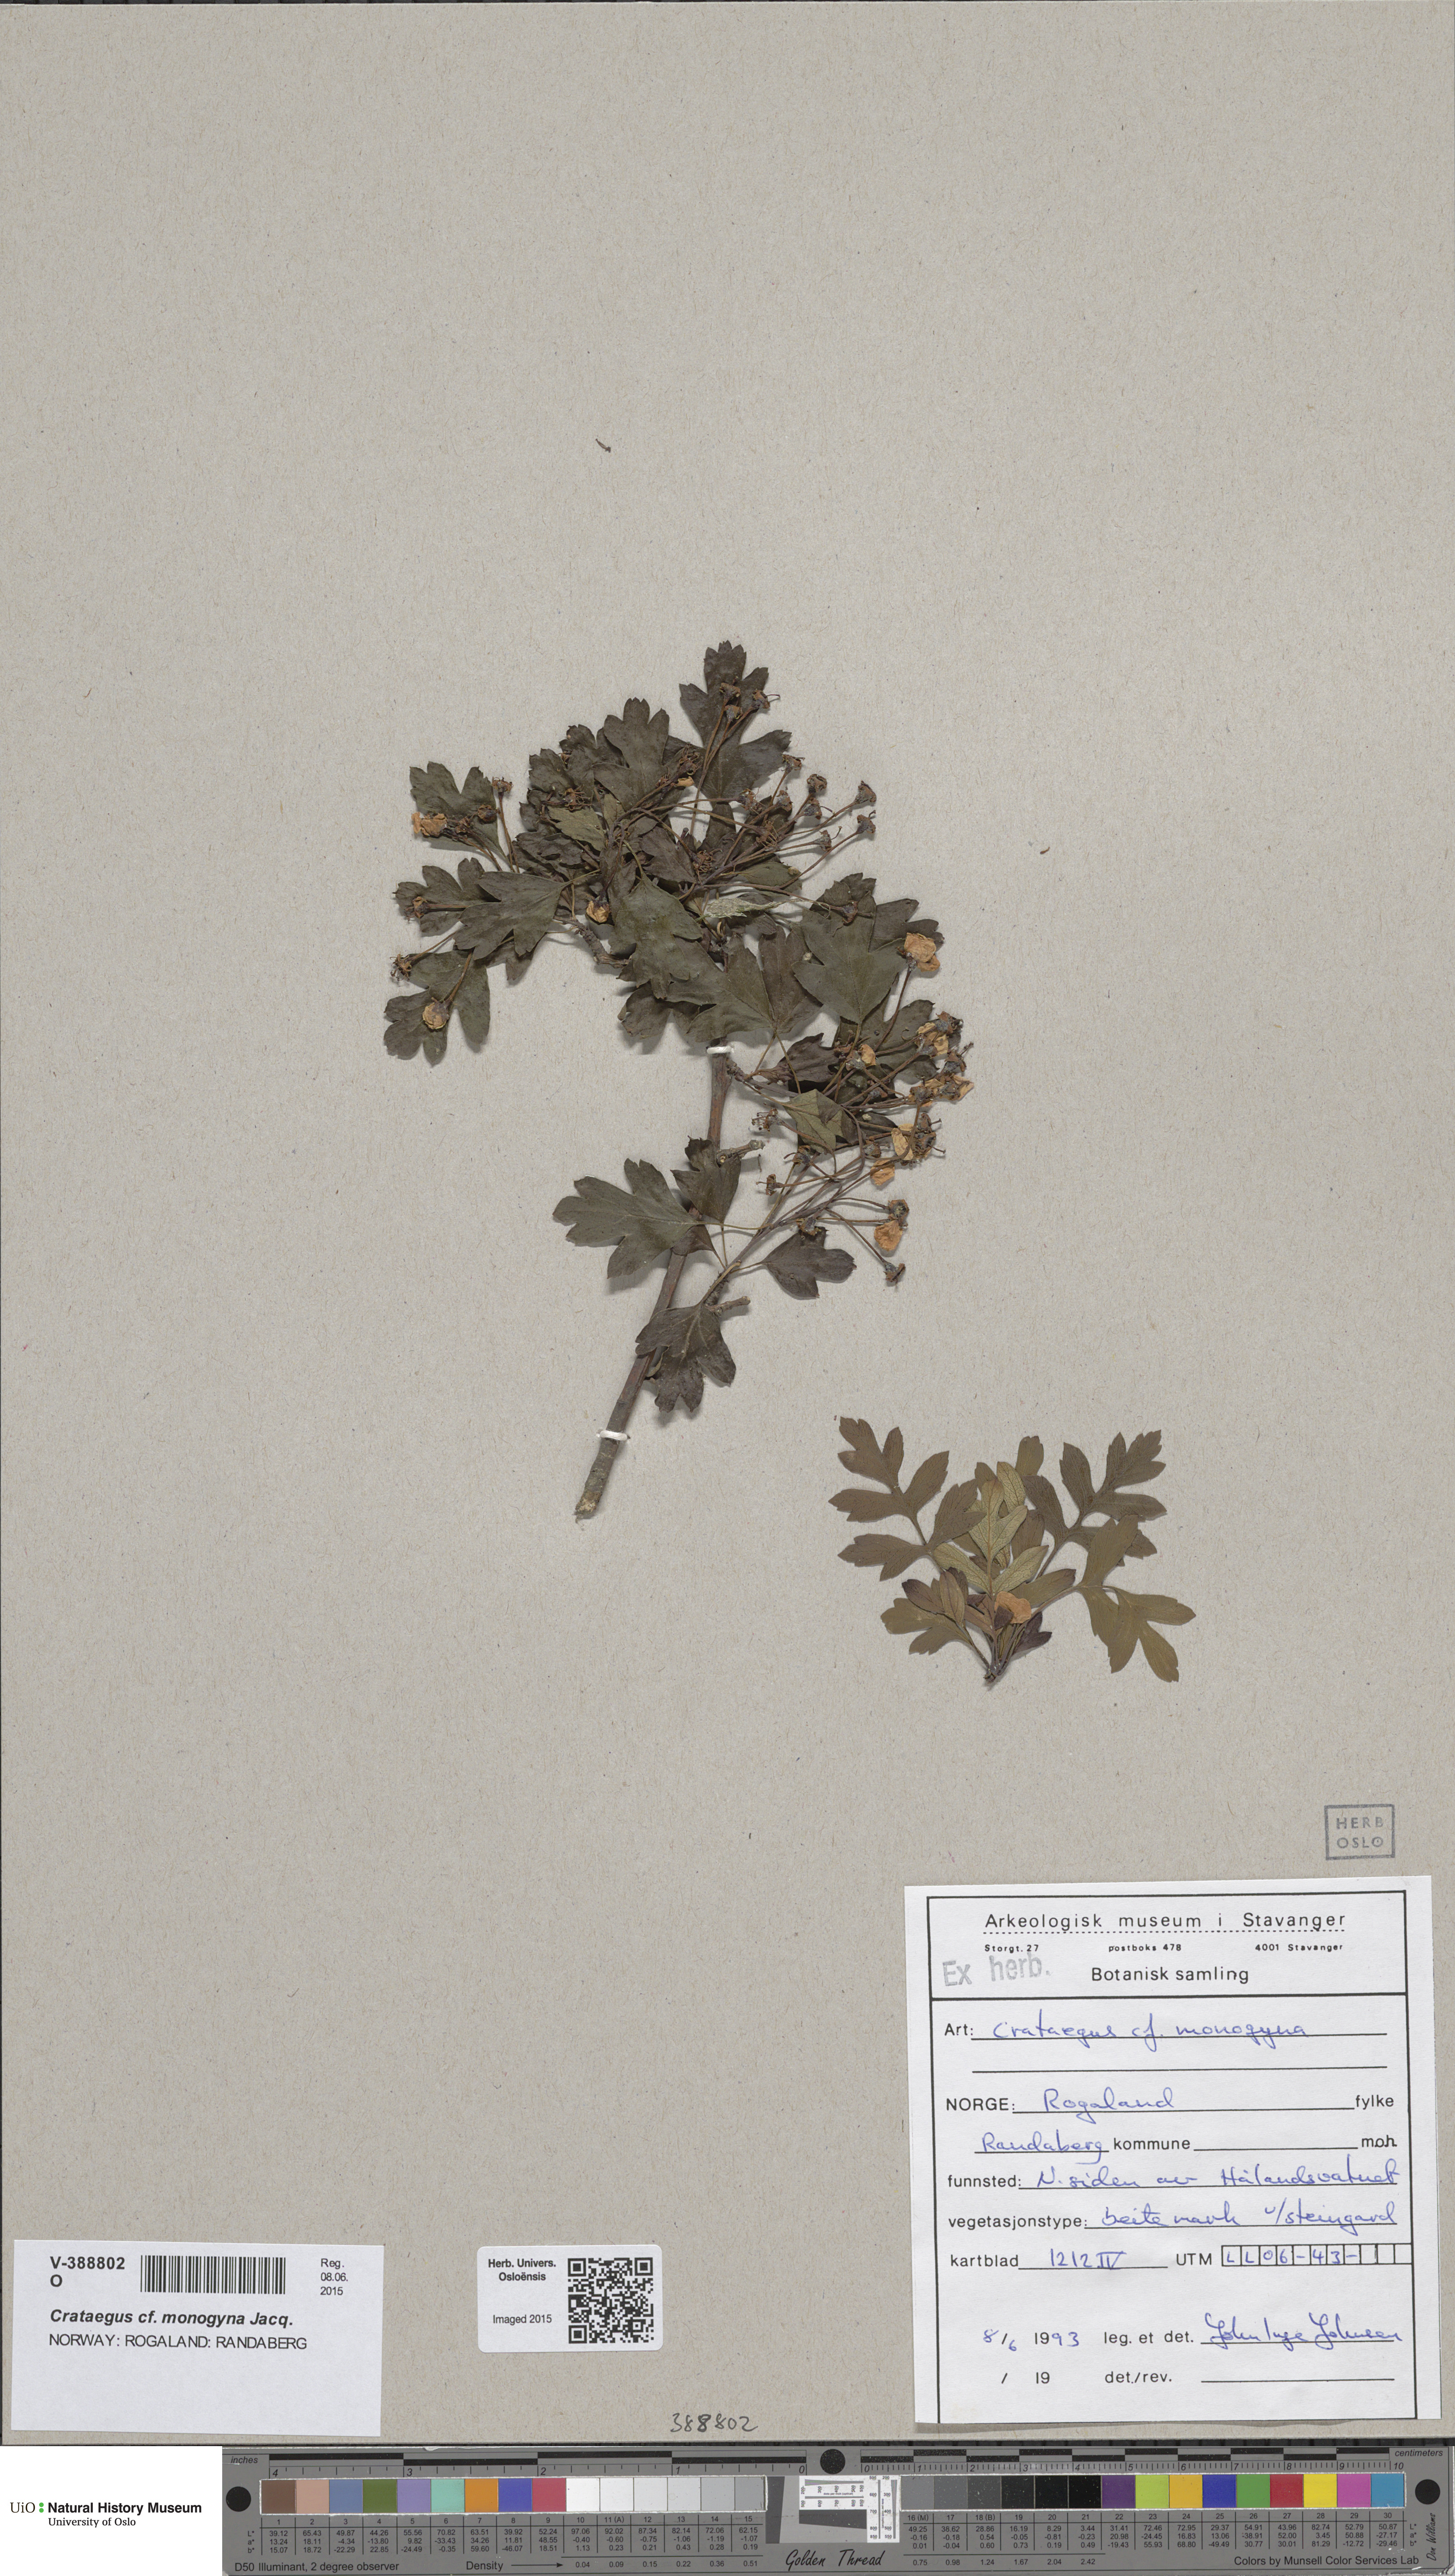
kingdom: Plantae
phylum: Tracheophyta
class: Magnoliopsida
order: Rosales
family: Rosaceae
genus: Crataegus
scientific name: Crataegus monogyna
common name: Hawthorn
